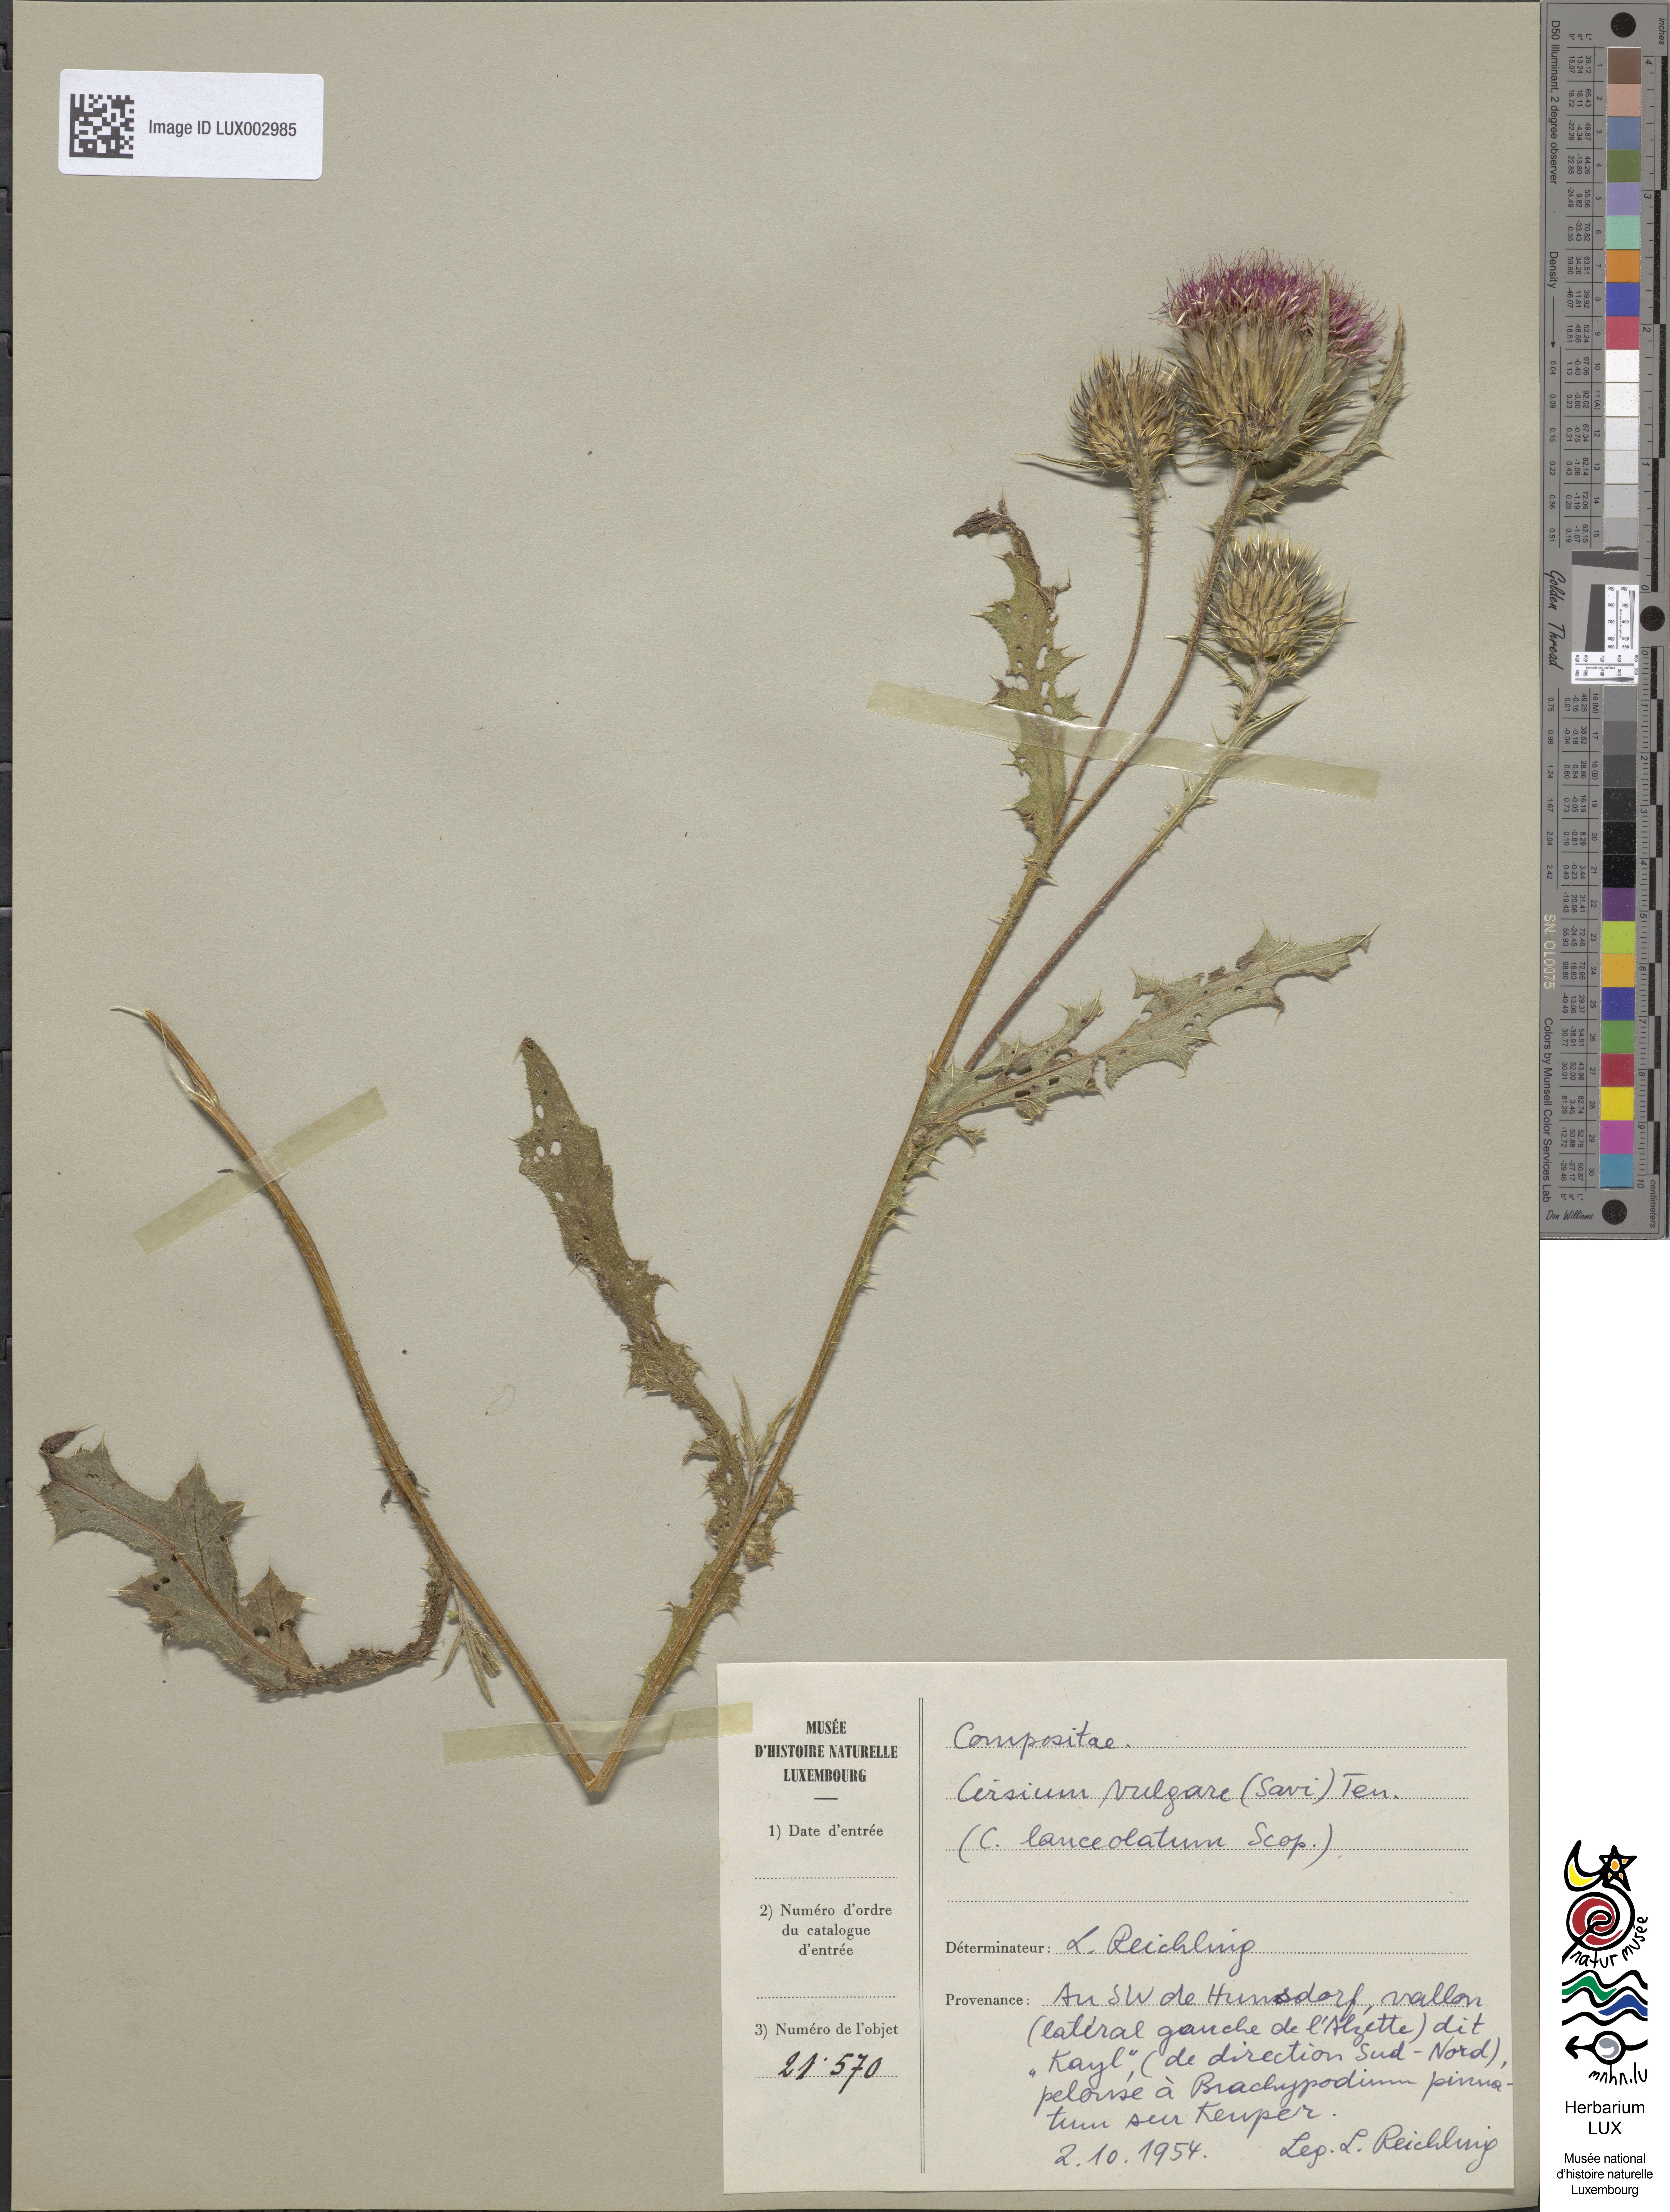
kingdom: Plantae
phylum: Tracheophyta
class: Magnoliopsida
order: Asterales
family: Asteraceae
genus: Cirsium
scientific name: Cirsium vulgare
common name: Bull thistle
